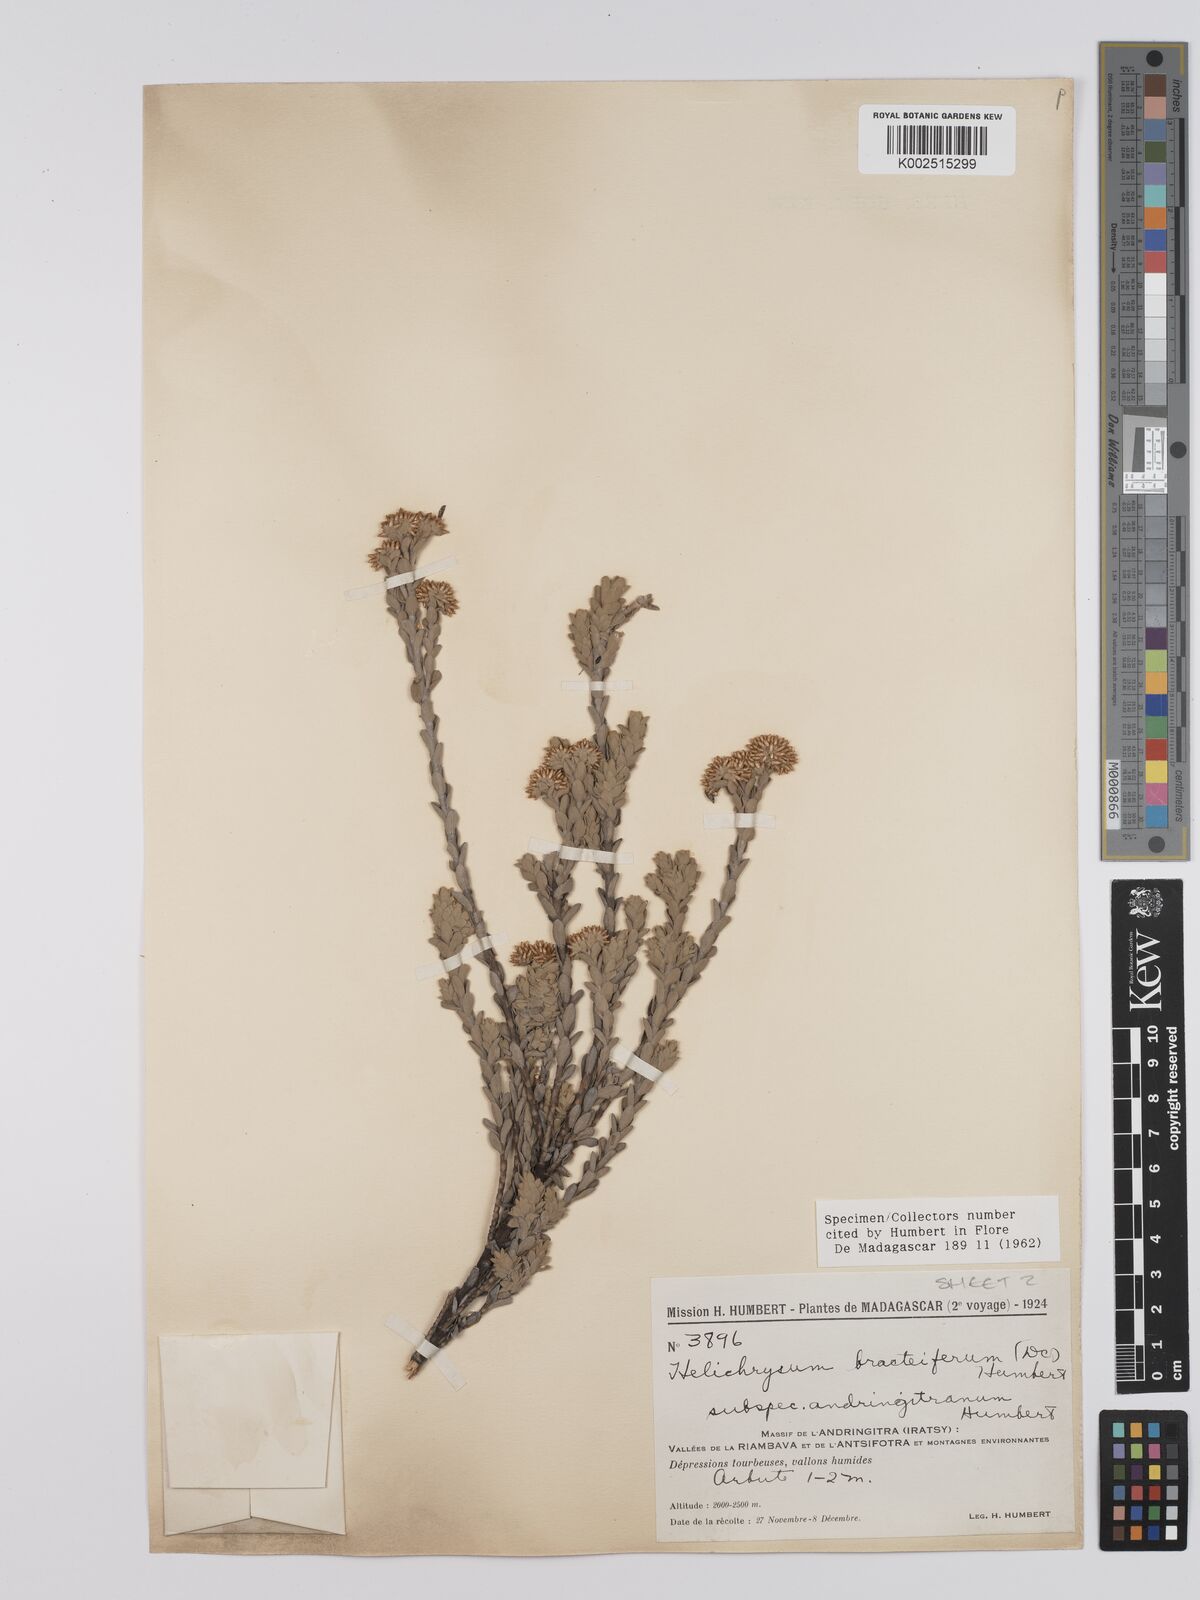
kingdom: Plantae
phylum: Tracheophyta
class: Magnoliopsida
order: Asterales
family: Asteraceae
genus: Helichrysum
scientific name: Helichrysum bracteiferum
